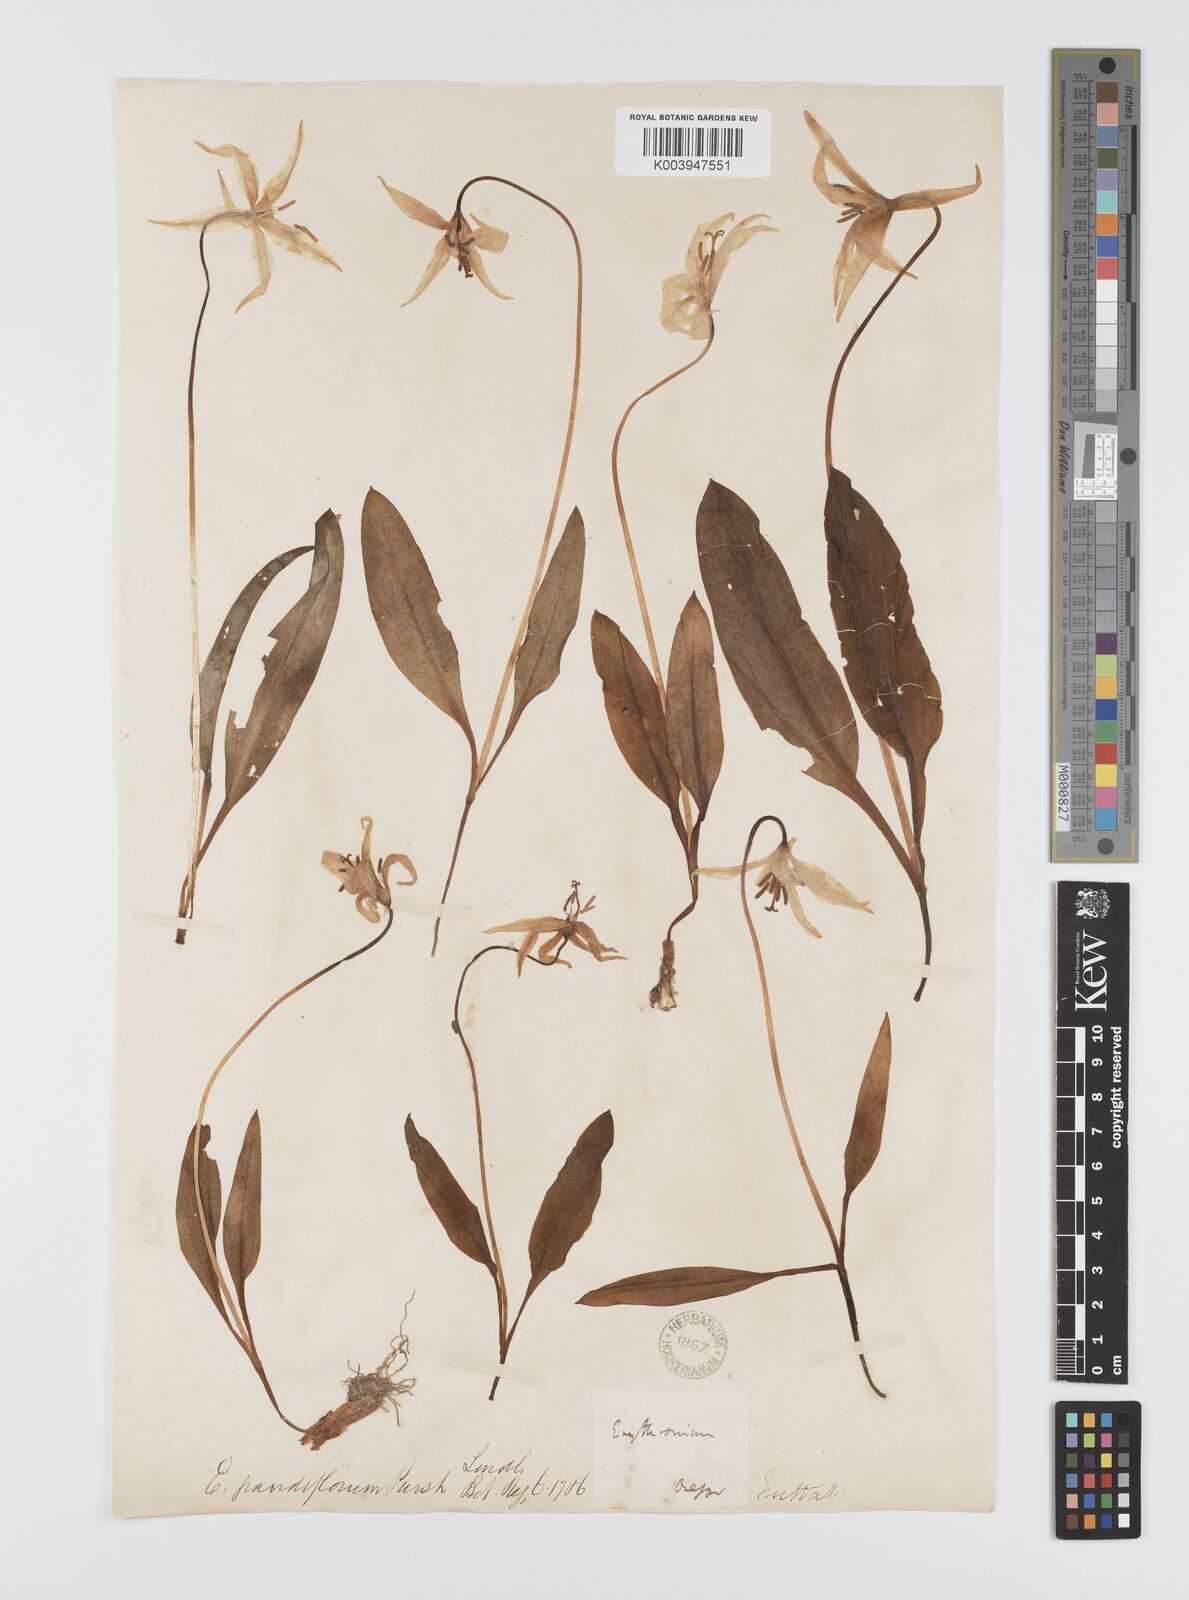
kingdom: Plantae
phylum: Tracheophyta
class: Liliopsida
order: Liliales
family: Liliaceae
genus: Erythronium
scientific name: Erythronium grandiflorum
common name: Avalanche-lily
